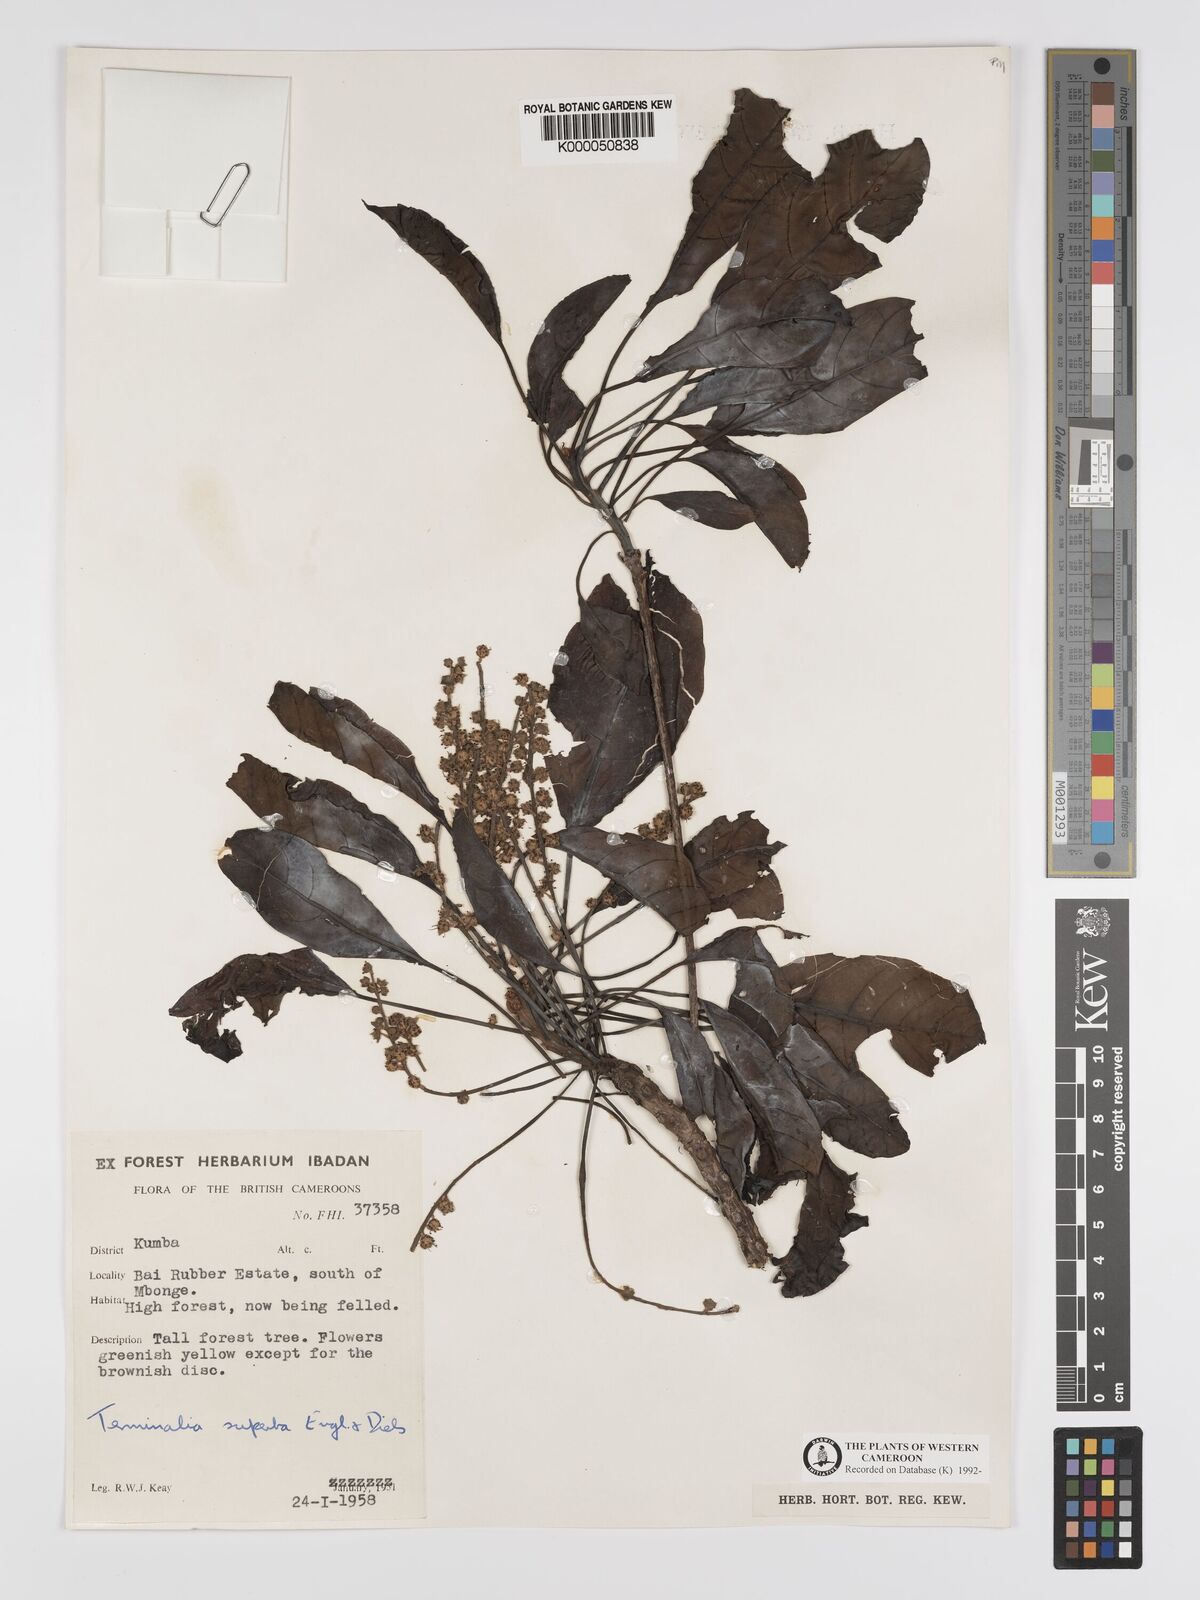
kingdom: Plantae
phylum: Tracheophyta
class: Magnoliopsida
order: Myrtales
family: Combretaceae
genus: Terminalia
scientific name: Terminalia superba
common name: White afara
